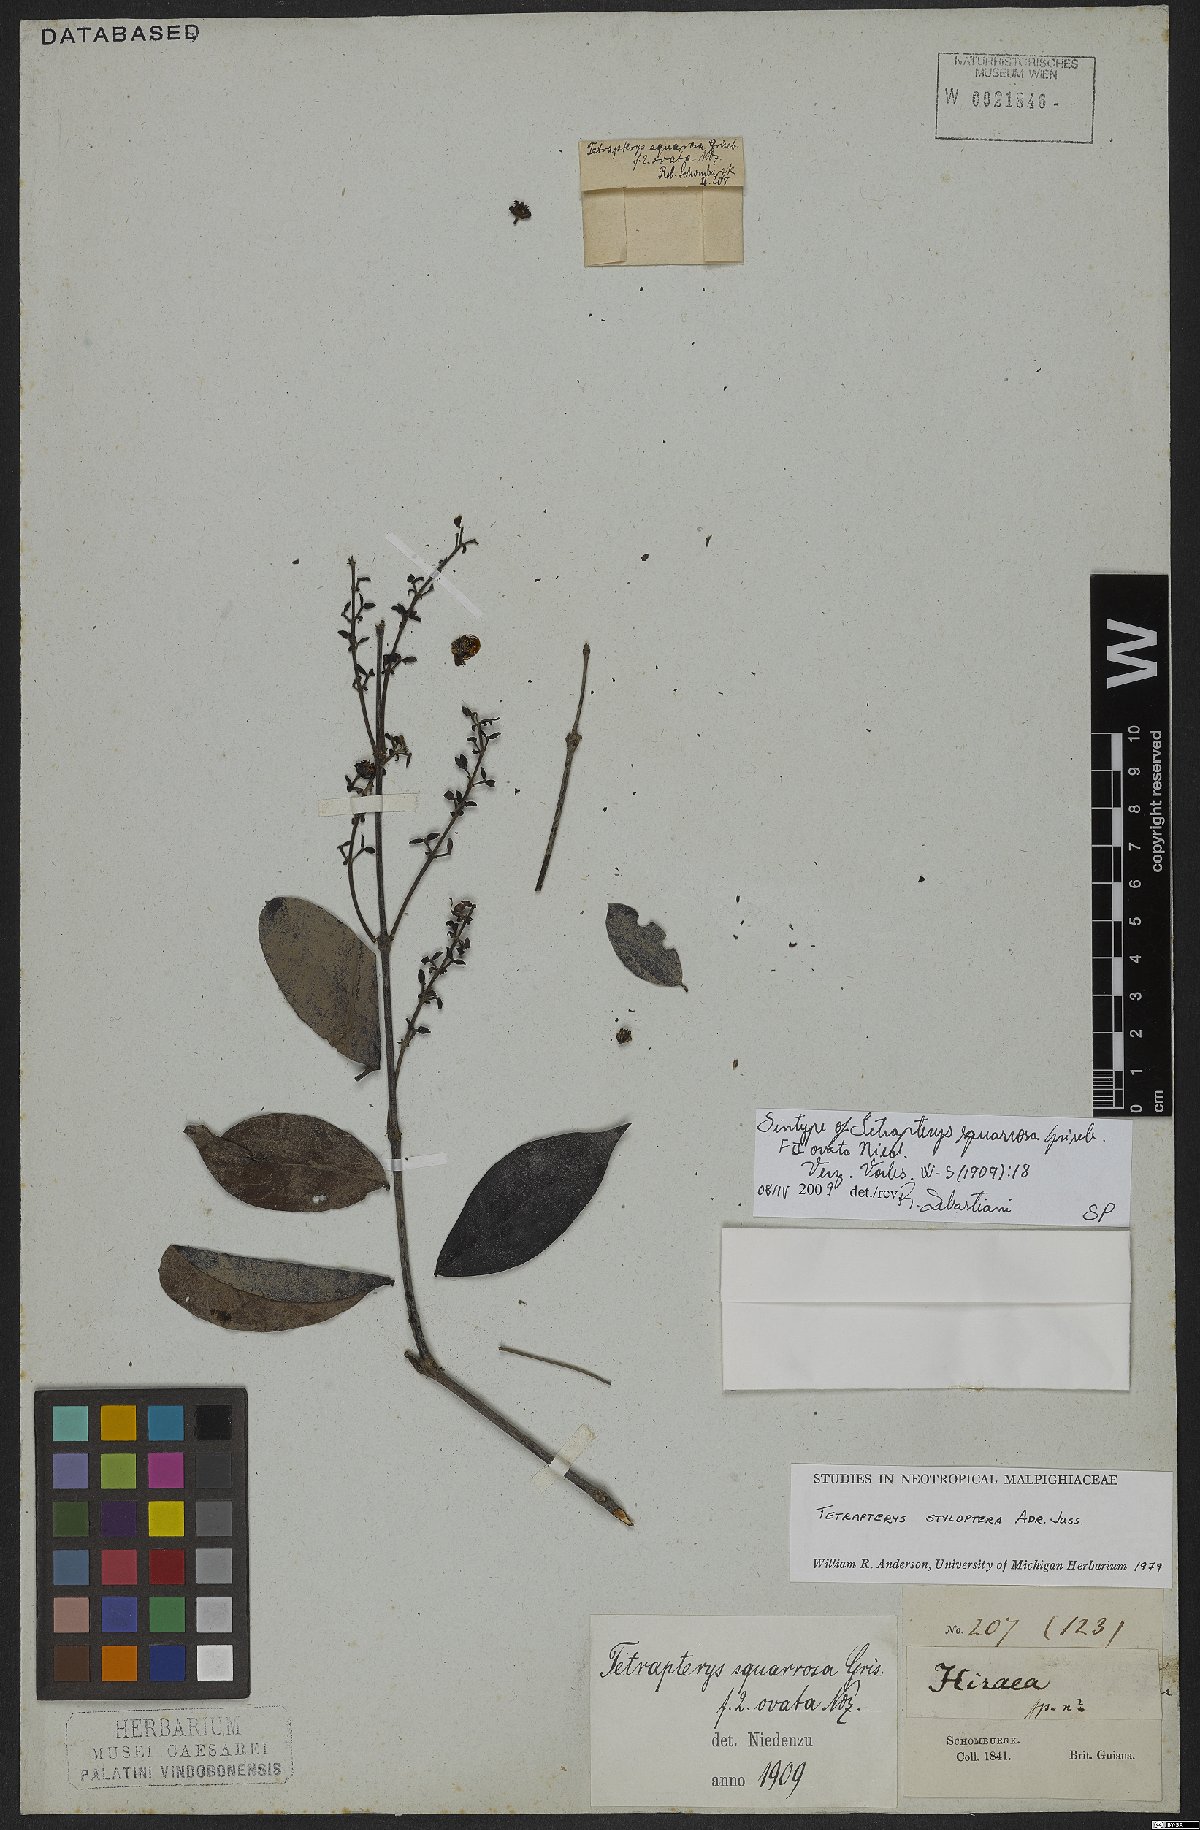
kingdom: Plantae
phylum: Tracheophyta
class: Magnoliopsida
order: Malpighiales
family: Malpighiaceae
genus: Glicophyllum
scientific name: Glicophyllum stylopterum
